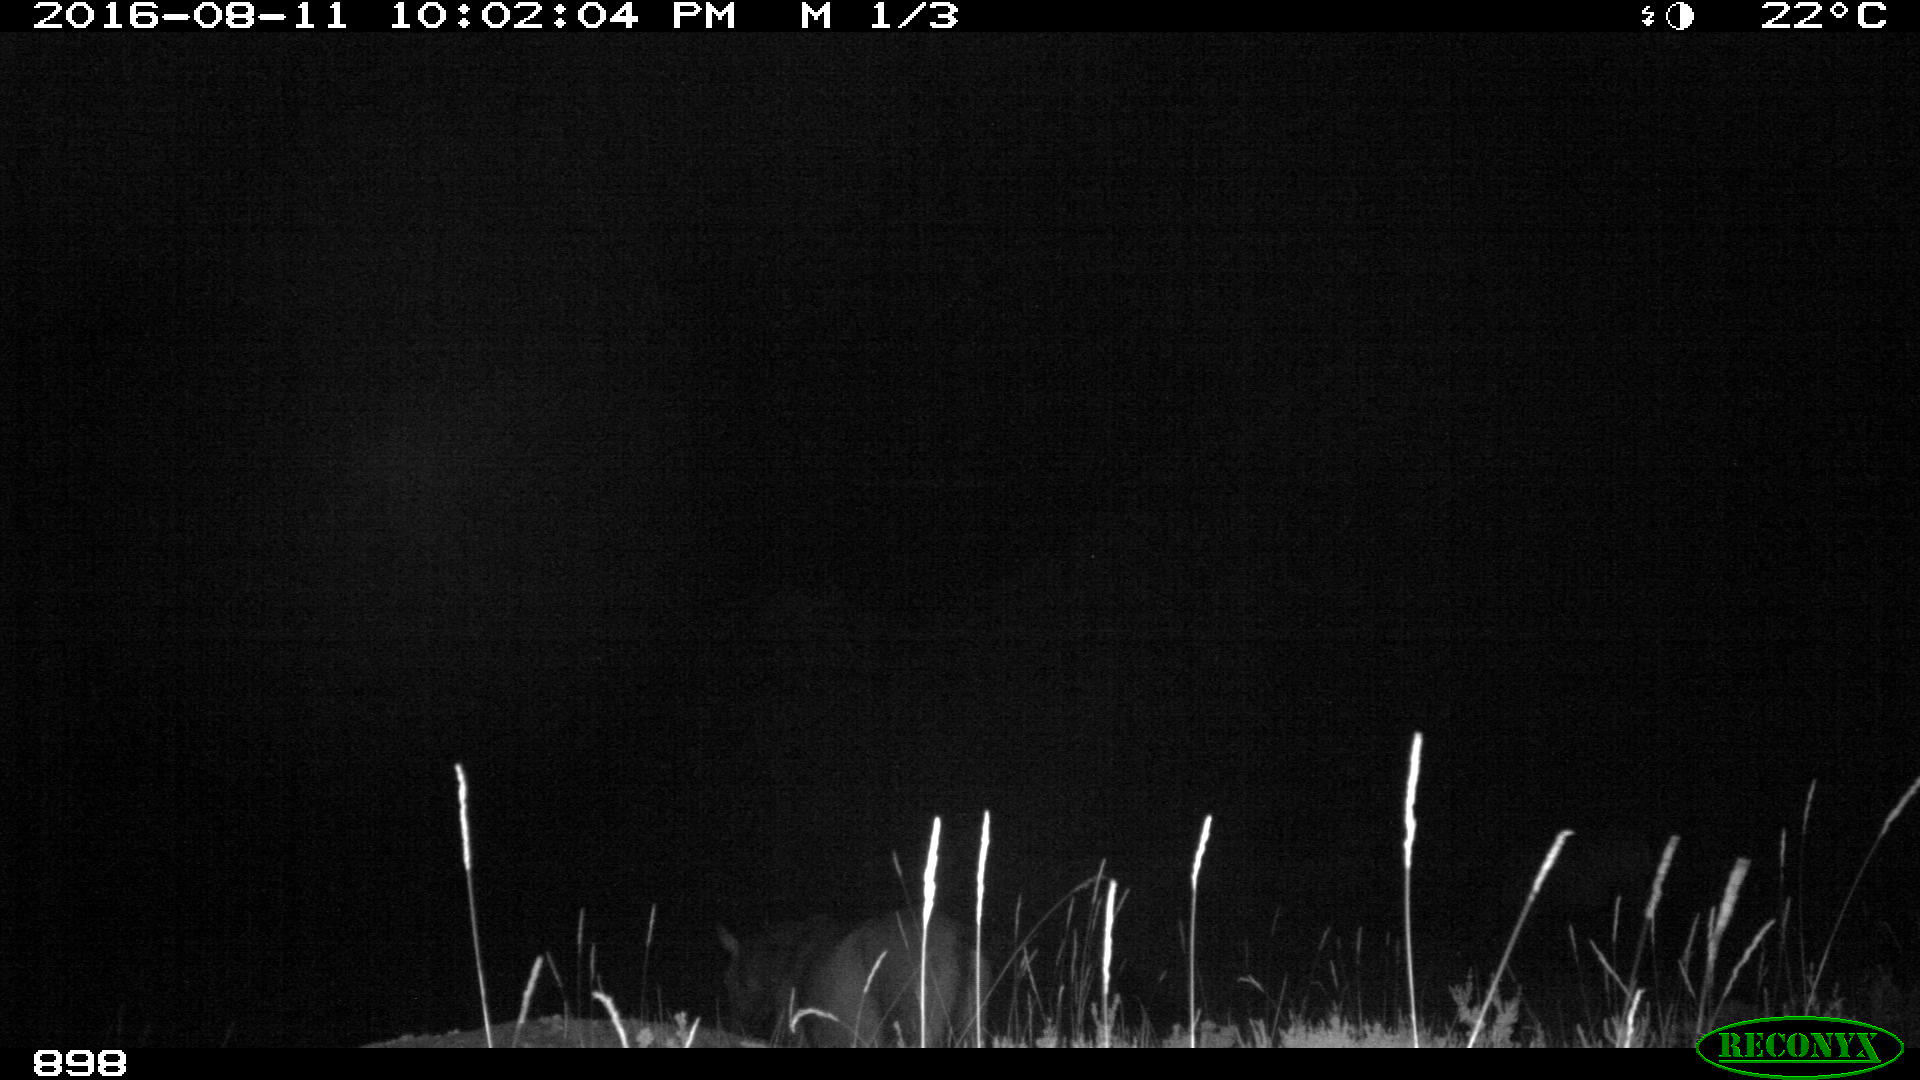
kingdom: Animalia
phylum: Chordata
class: Mammalia
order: Perissodactyla
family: Equidae
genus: Equus
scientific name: Equus caballus
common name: Horse
